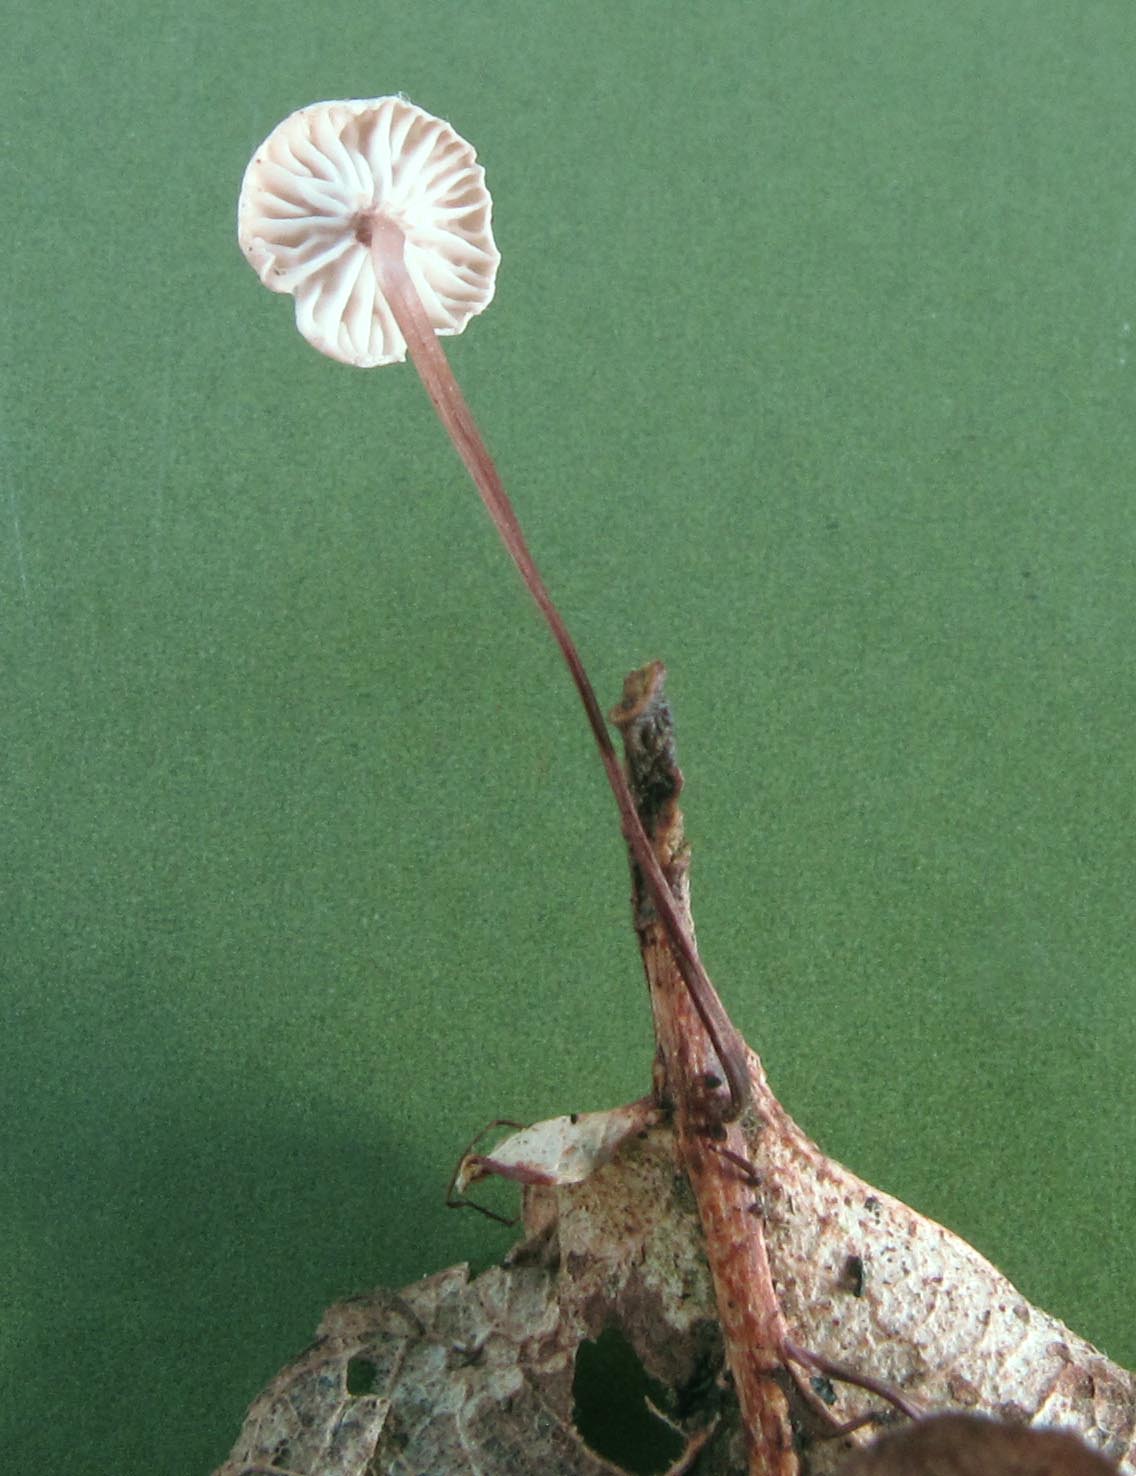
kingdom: Fungi
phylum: Basidiomycota
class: Agaricomycetes
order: Agaricales
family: Omphalotaceae
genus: Collybiopsis
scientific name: Collybiopsis quercophila
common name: egeblads-bruskhat
